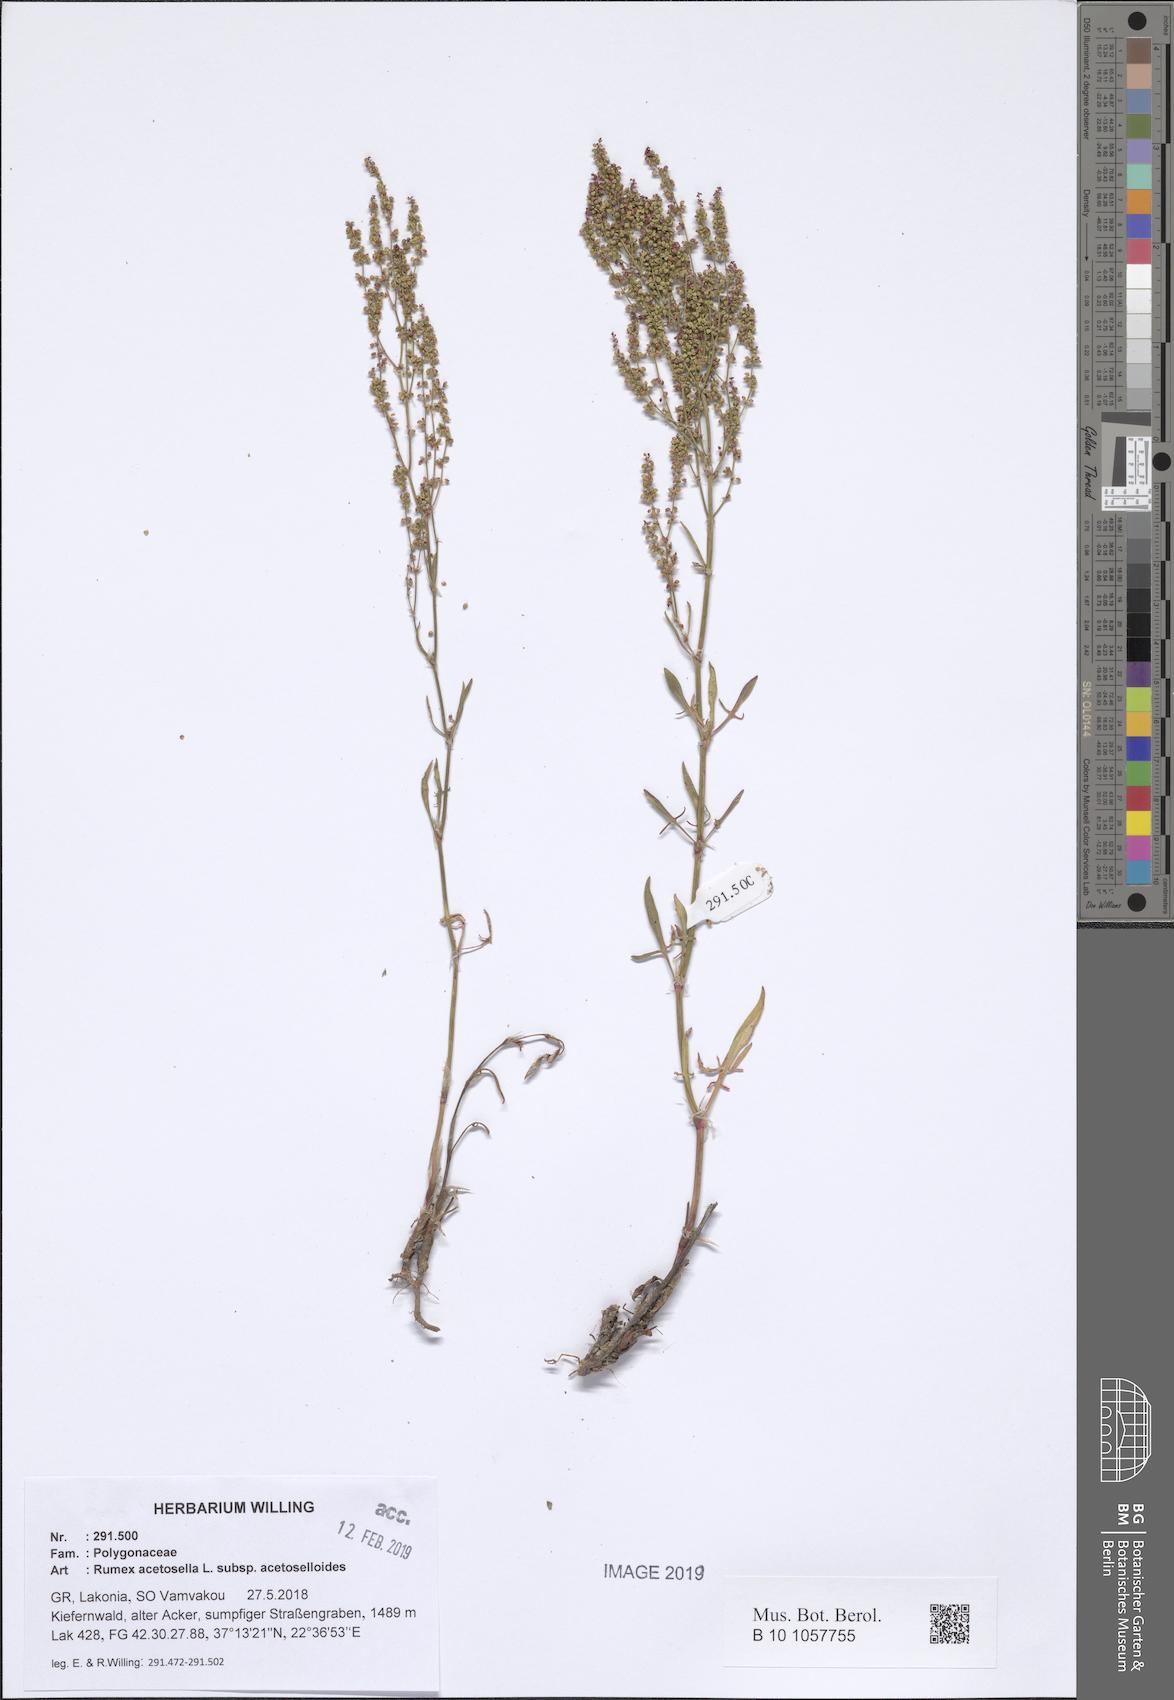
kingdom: Plantae
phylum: Tracheophyta
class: Magnoliopsida
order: Caryophyllales
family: Polygonaceae
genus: Rumex
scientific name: Rumex acetosella
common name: Common sheep sorrel
